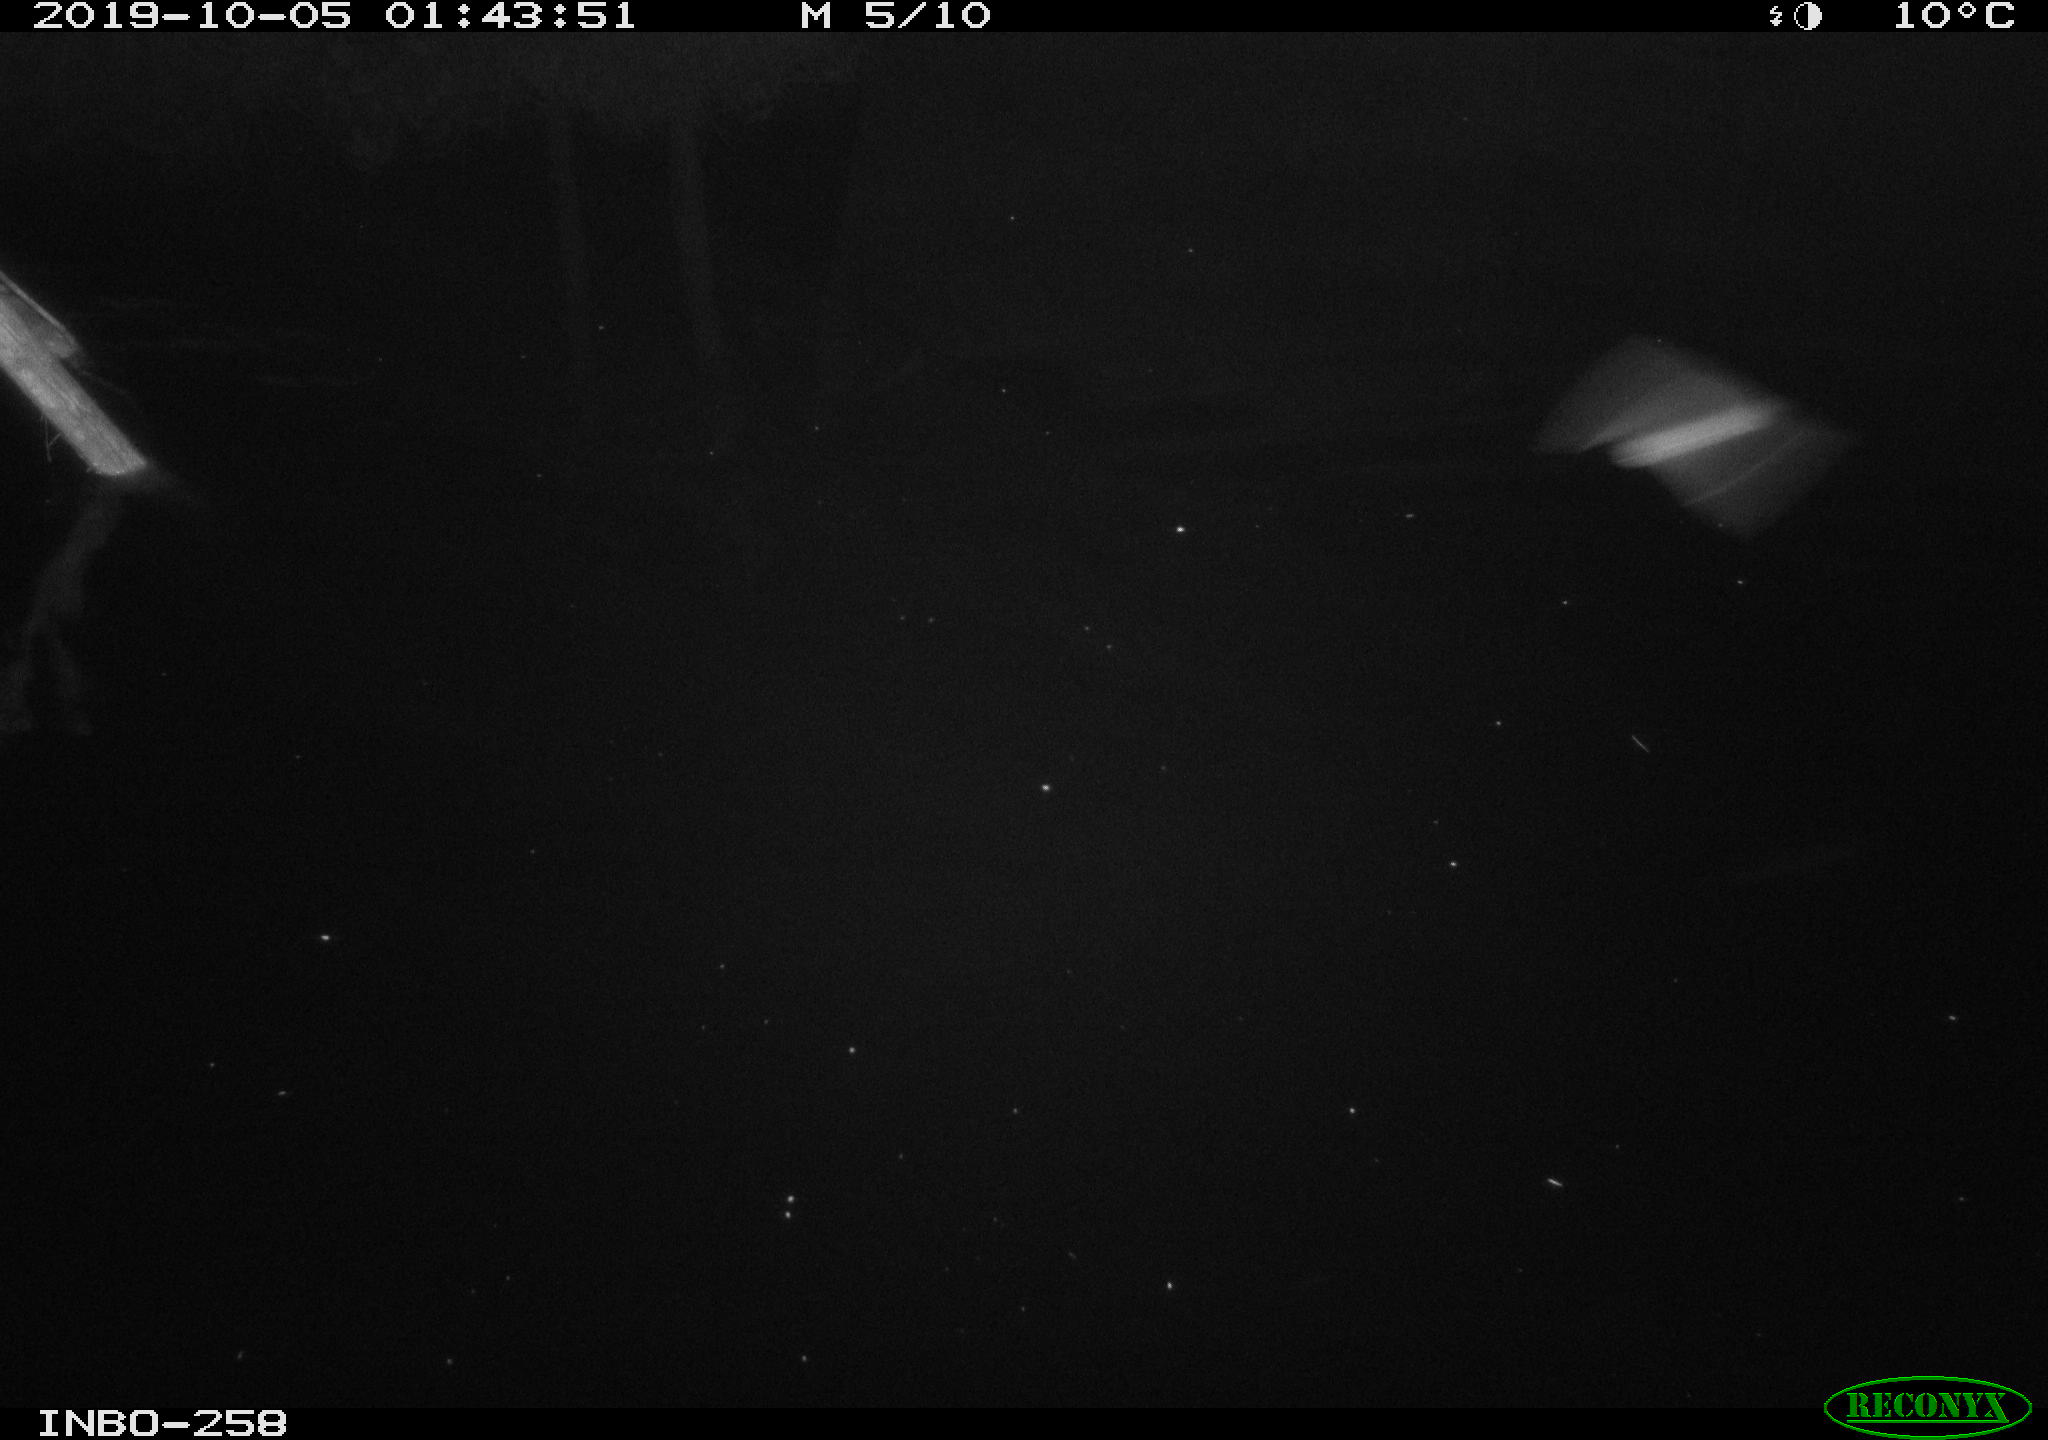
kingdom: Animalia
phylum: Chordata
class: Mammalia
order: Rodentia
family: Muridae
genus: Rattus
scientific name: Rattus norvegicus
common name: Brown rat
